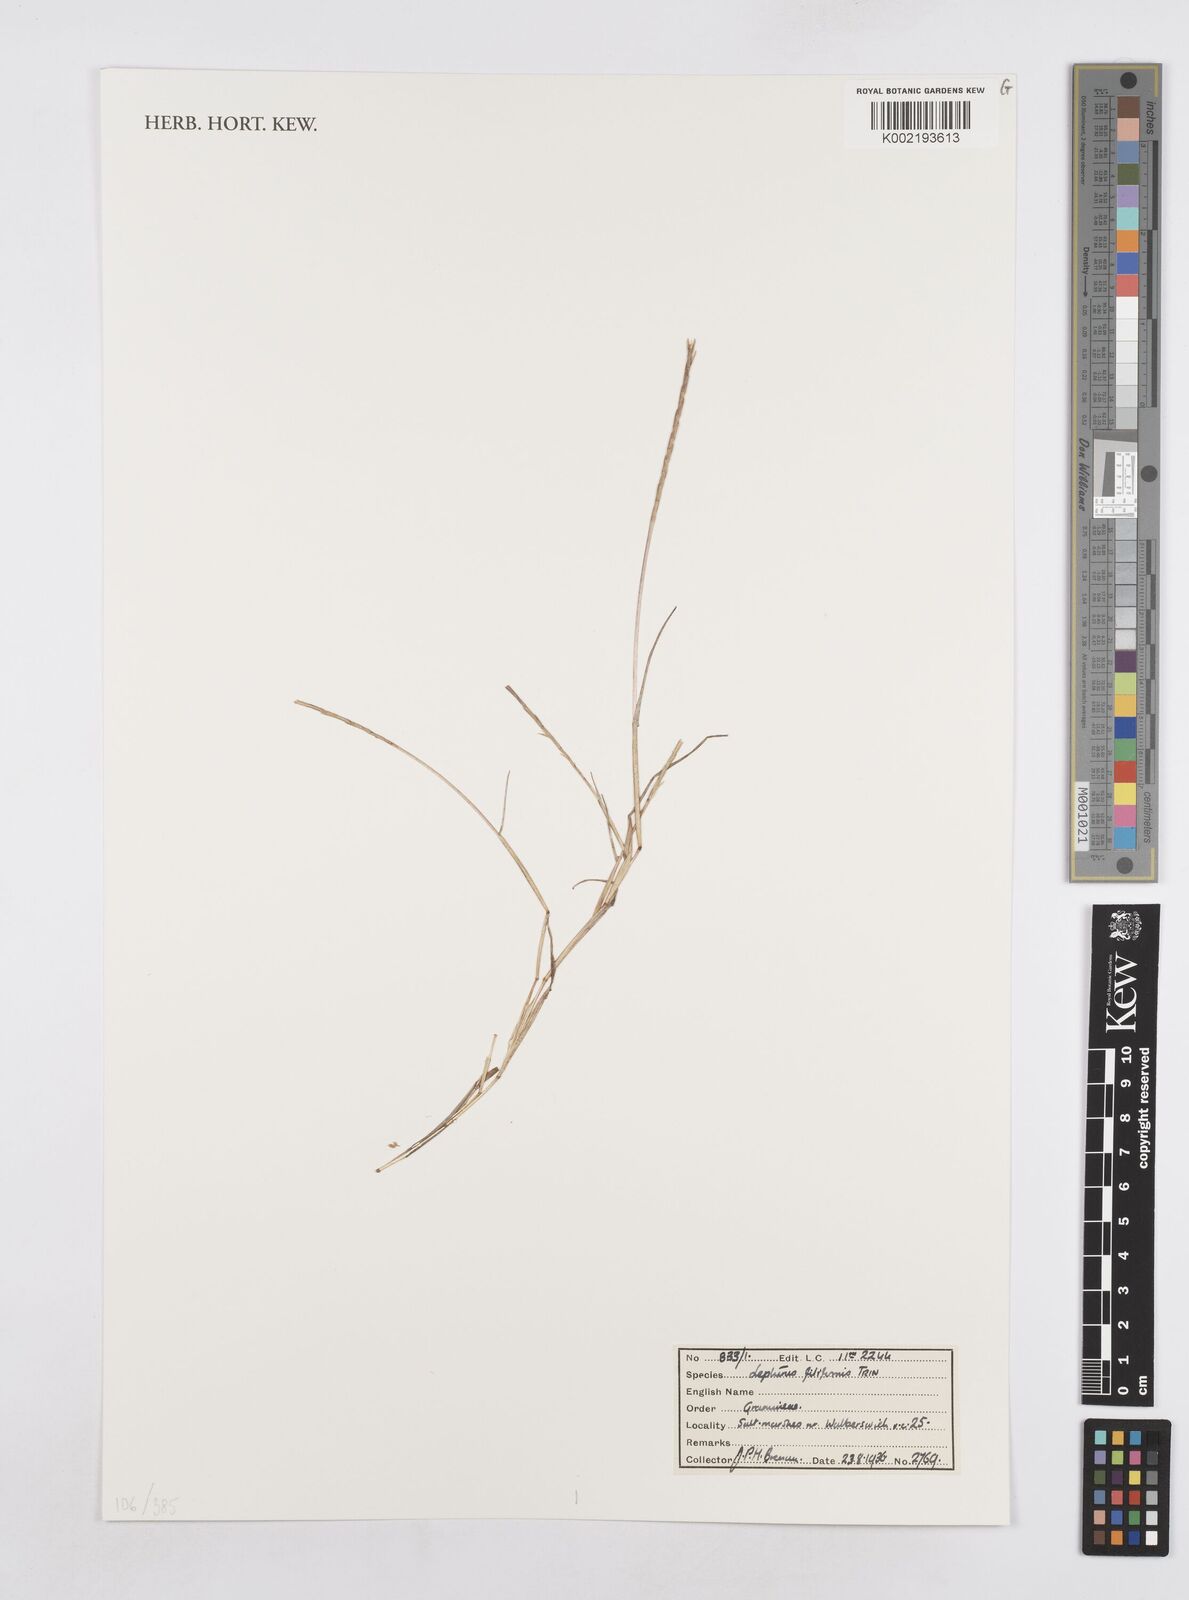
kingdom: Plantae
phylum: Tracheophyta
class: Liliopsida
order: Poales
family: Poaceae
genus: Parapholis
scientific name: Parapholis filiformis
